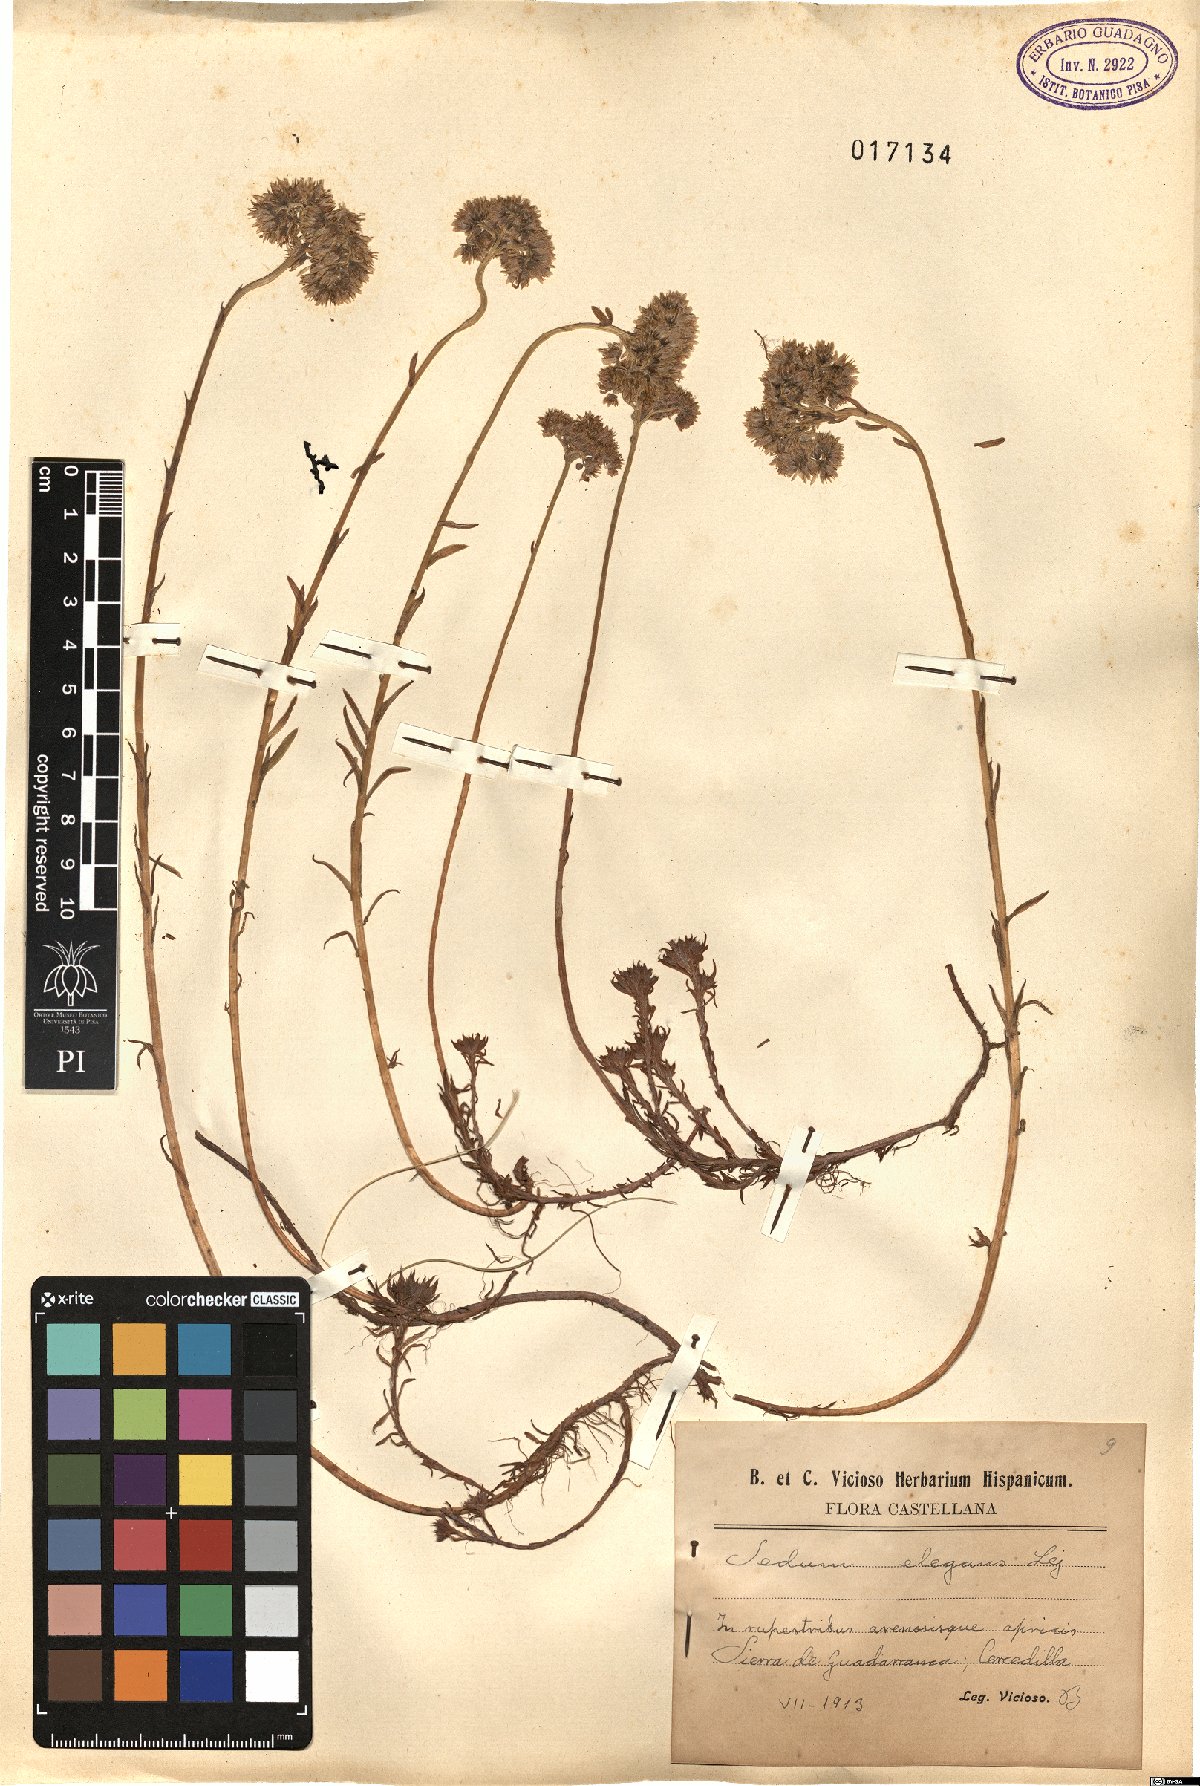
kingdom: Plantae
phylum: Tracheophyta
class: Magnoliopsida
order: Saxifragales
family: Crassulaceae
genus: Petrosedum
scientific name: Petrosedum forsterianum
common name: Forster's stonecrop
